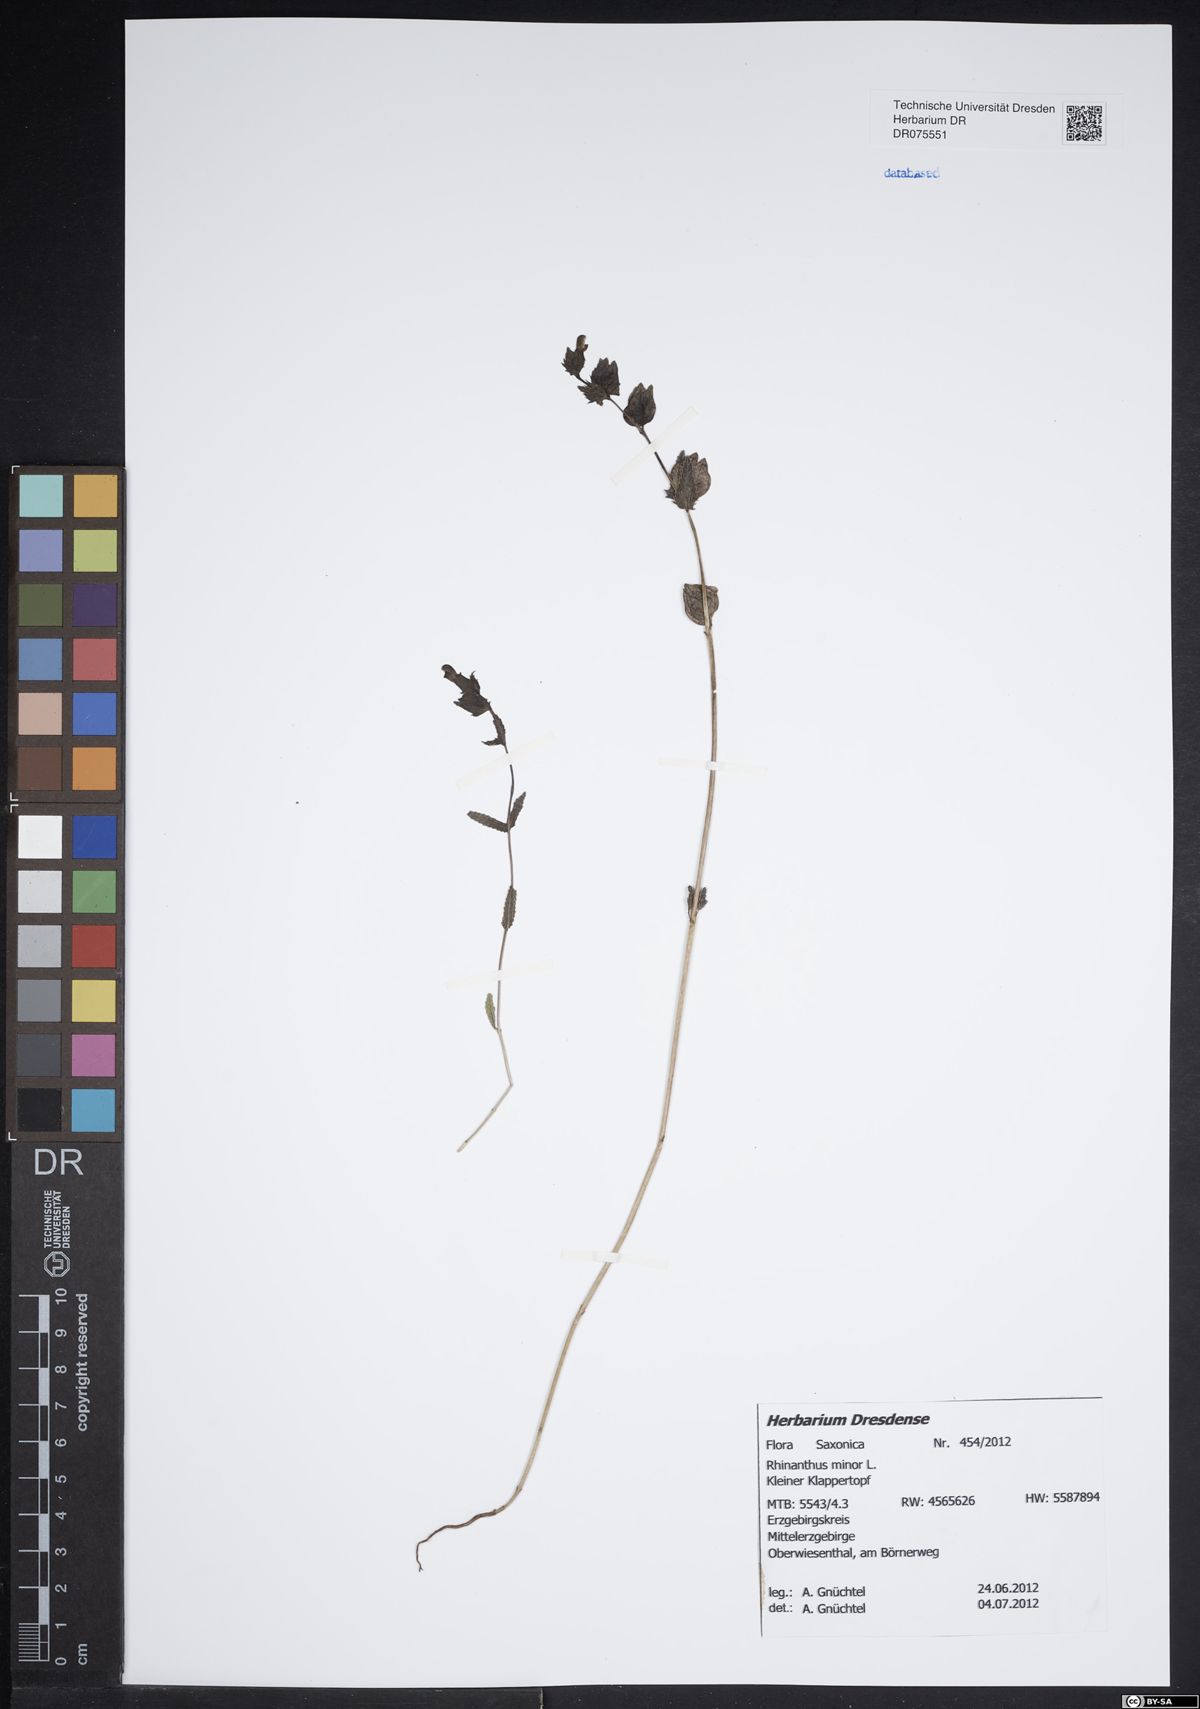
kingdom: Plantae
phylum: Tracheophyta
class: Magnoliopsida
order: Lamiales
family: Orobanchaceae
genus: Rhinanthus
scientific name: Rhinanthus minor
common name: Yellow-rattle
